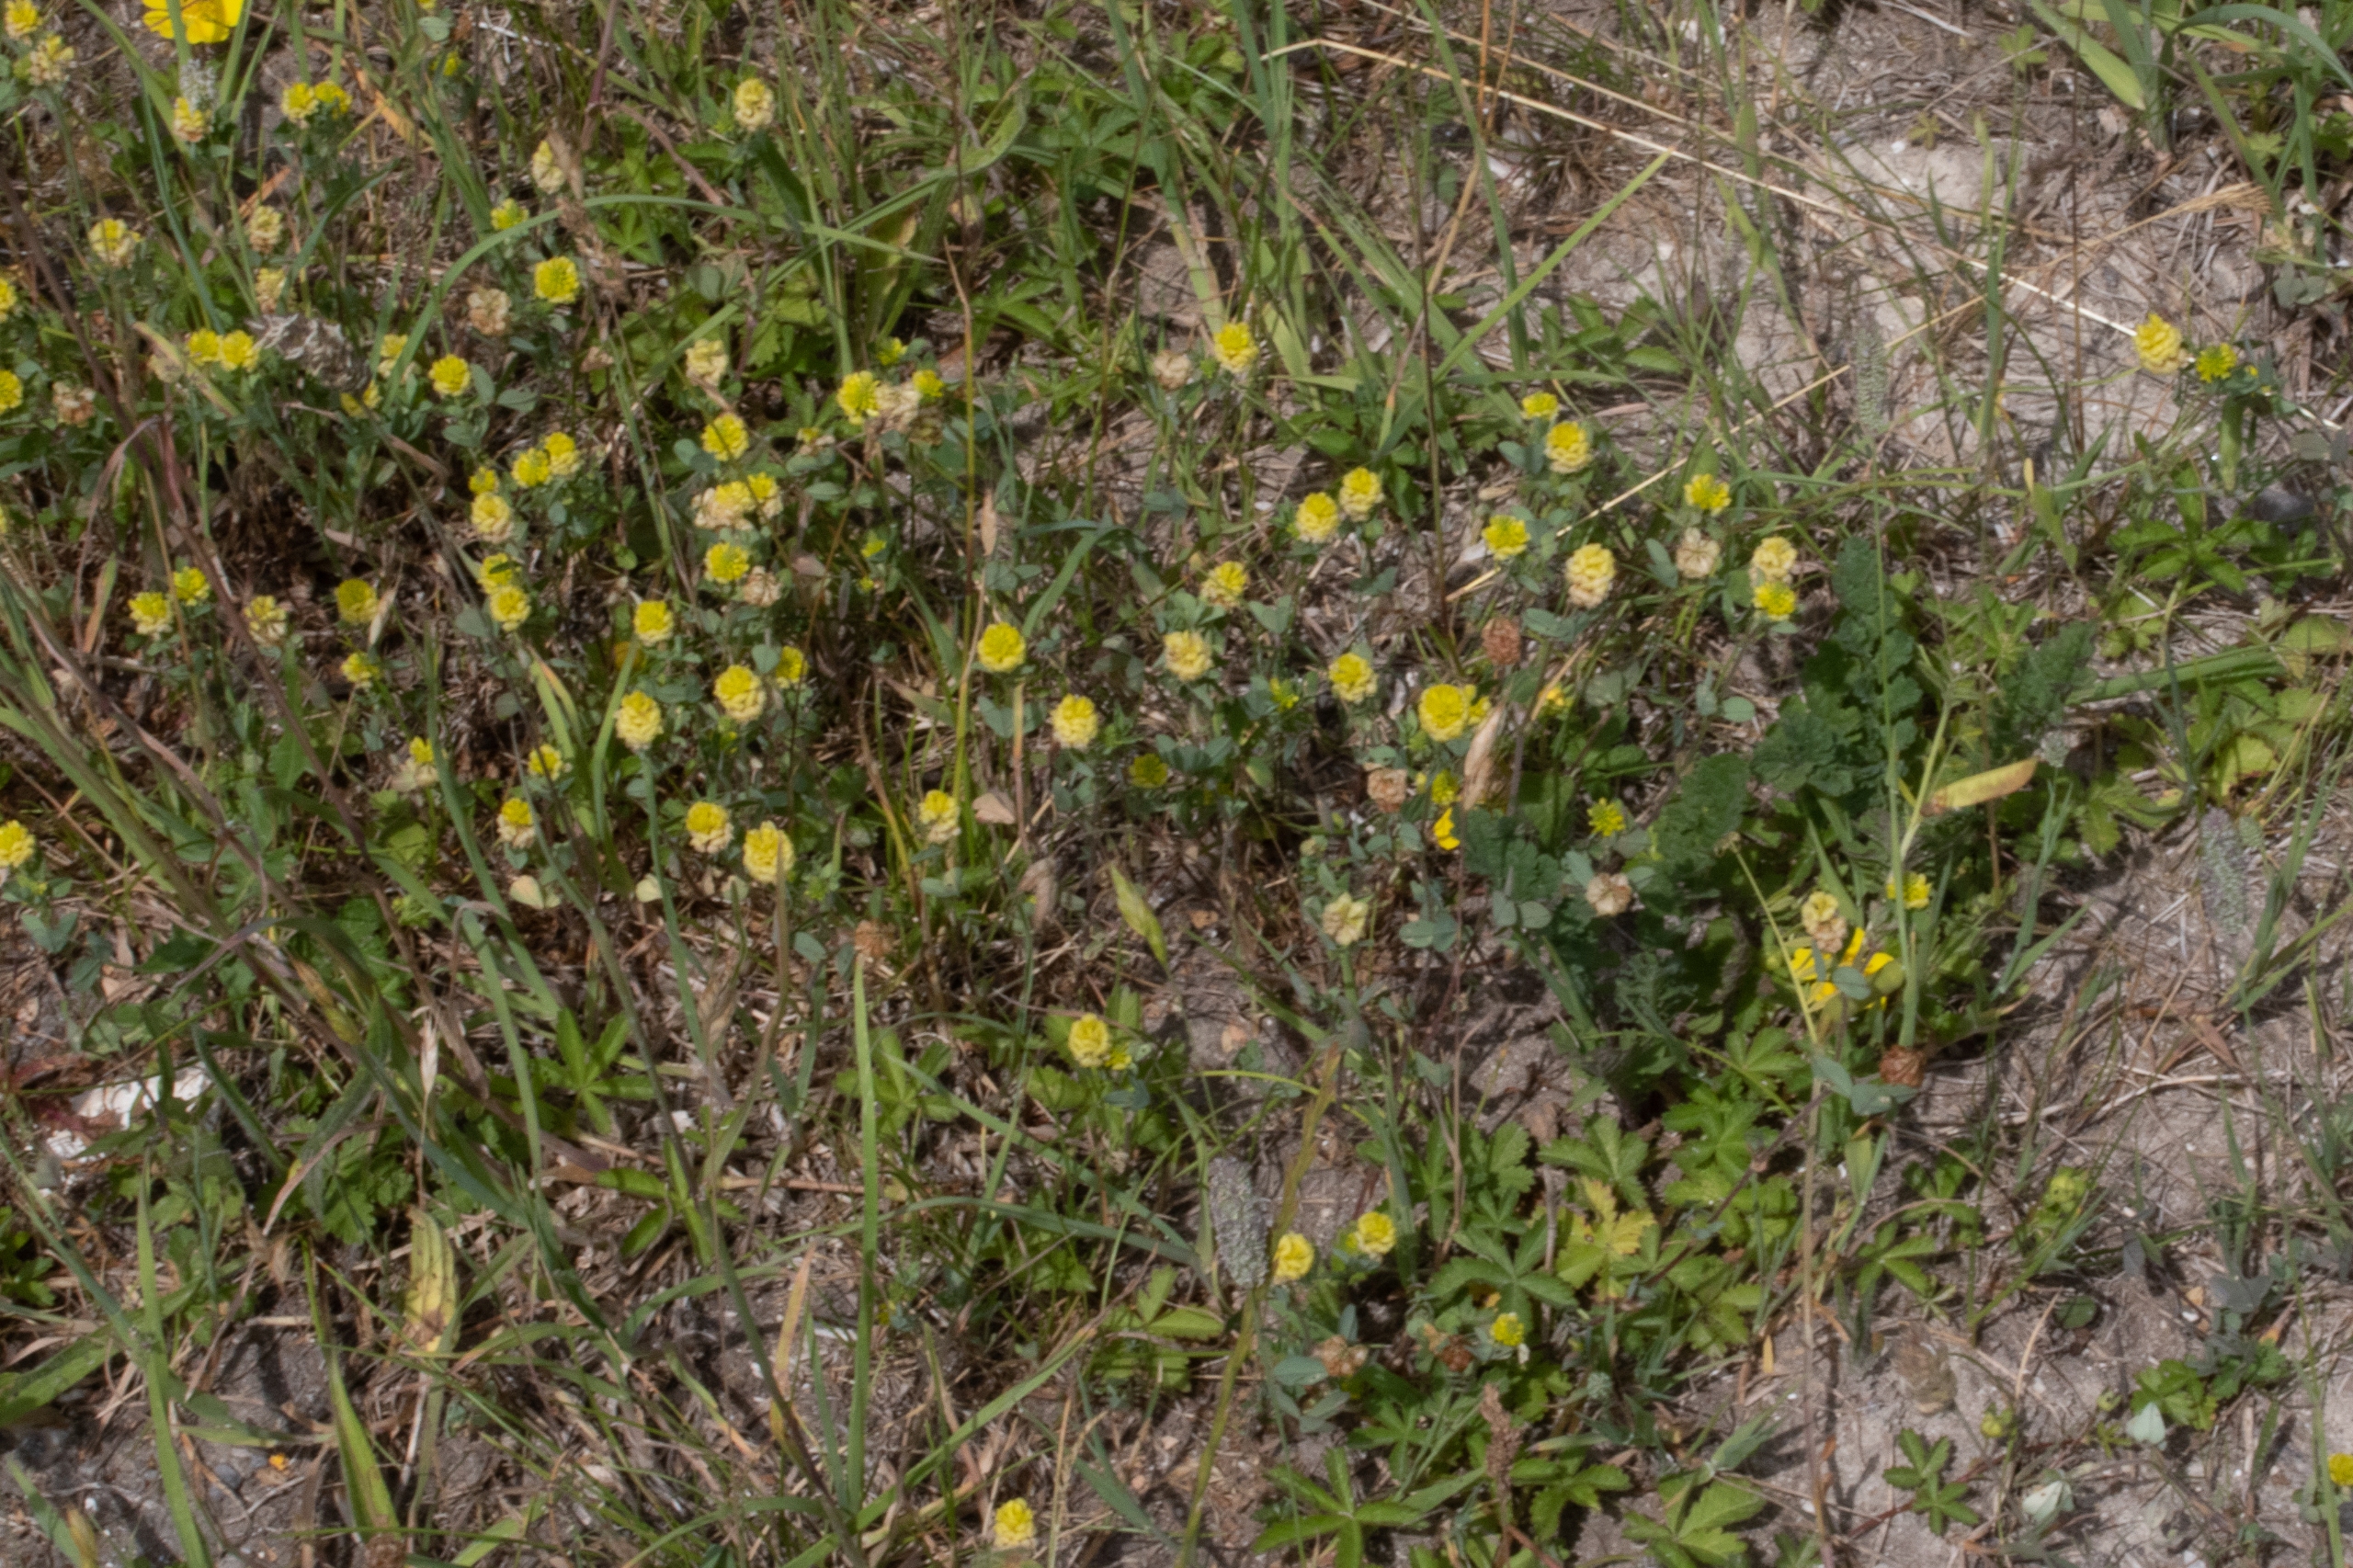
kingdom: Plantae
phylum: Tracheophyta
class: Magnoliopsida
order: Fabales
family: Fabaceae
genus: Trifolium
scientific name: Trifolium campestre
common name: Gul kløver
